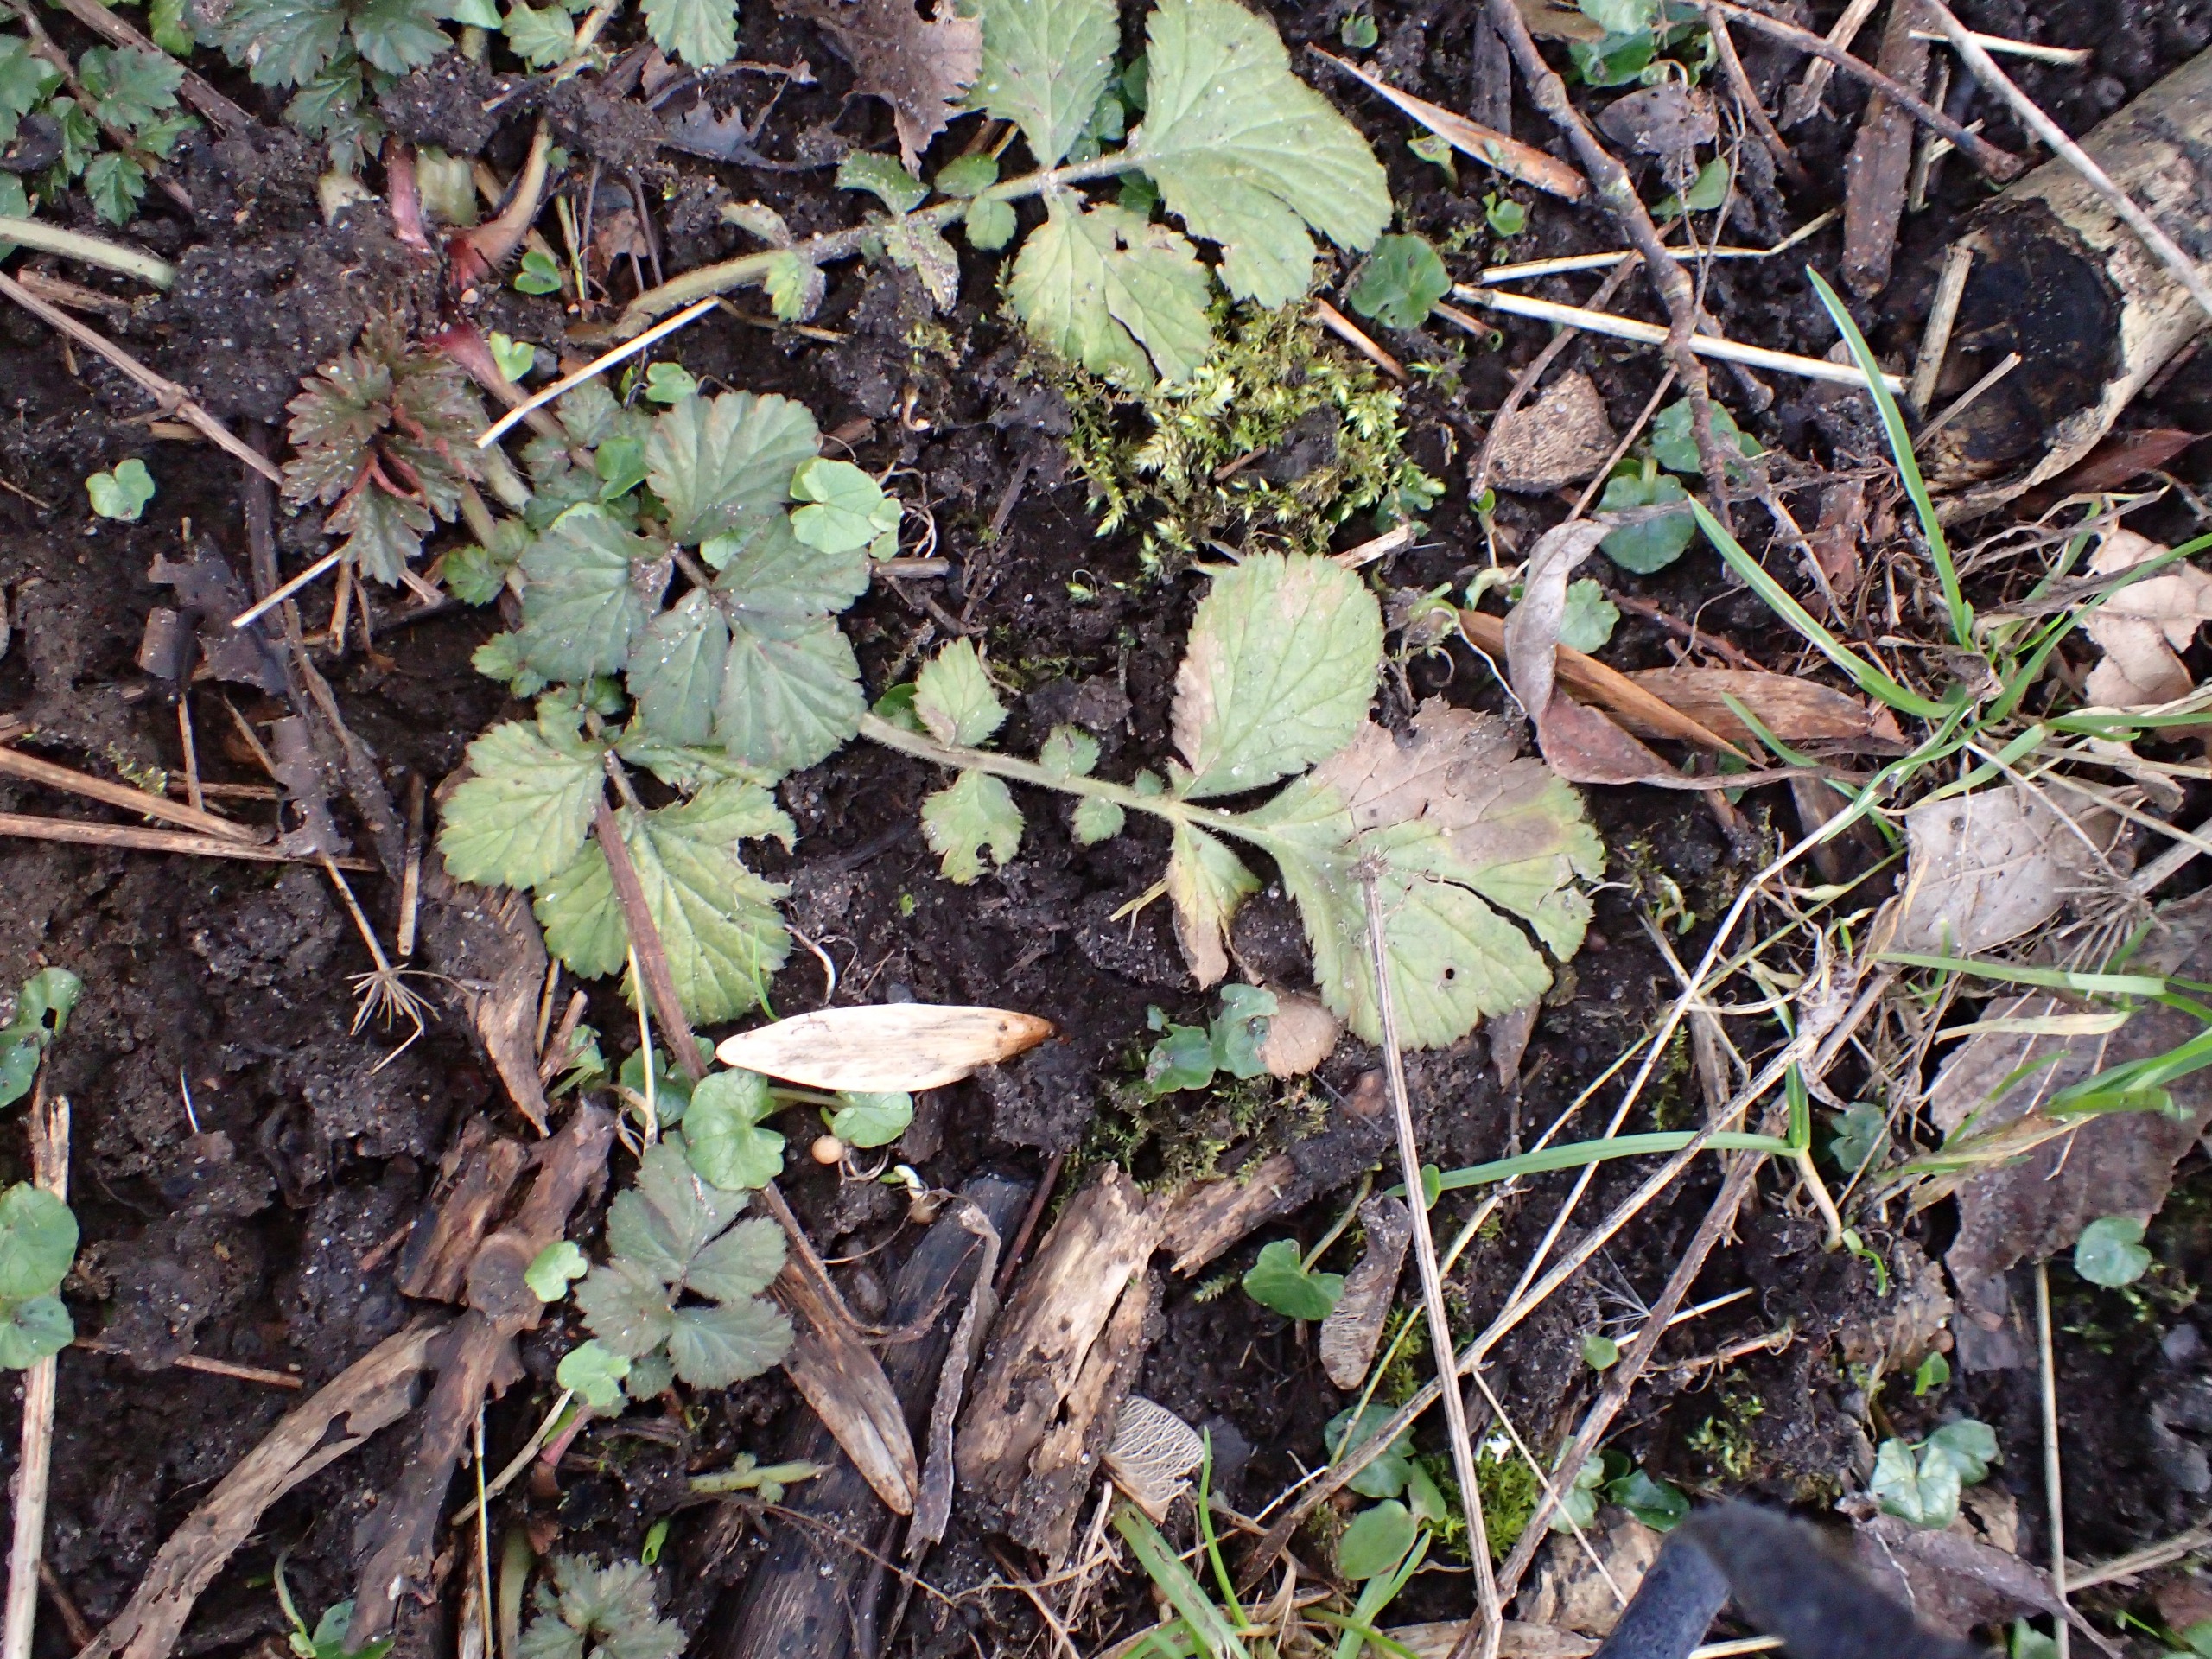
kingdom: Plantae
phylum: Tracheophyta
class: Magnoliopsida
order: Rosales
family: Rosaceae
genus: Geum
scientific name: Geum urbanum
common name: Feber-nellikerod
